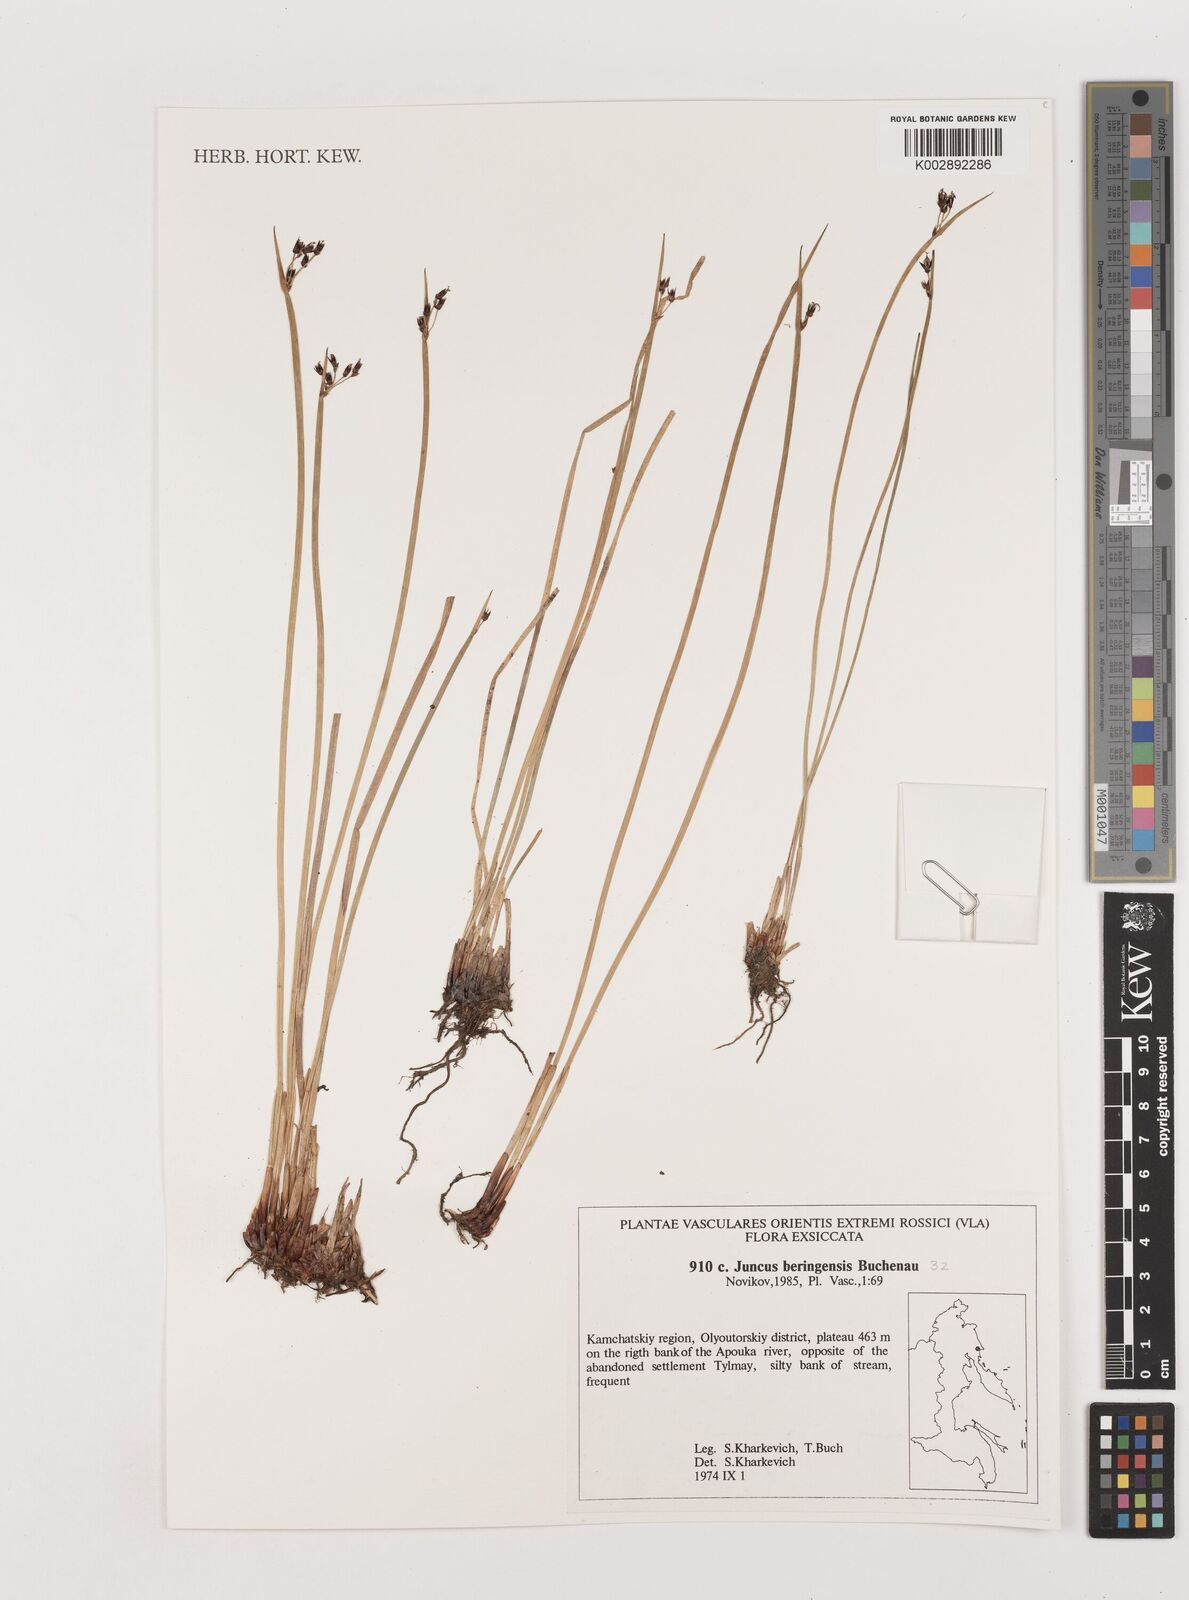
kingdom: Plantae
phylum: Tracheophyta
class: Liliopsida
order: Poales
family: Juncaceae
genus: Juncus
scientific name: Juncus beringensis
